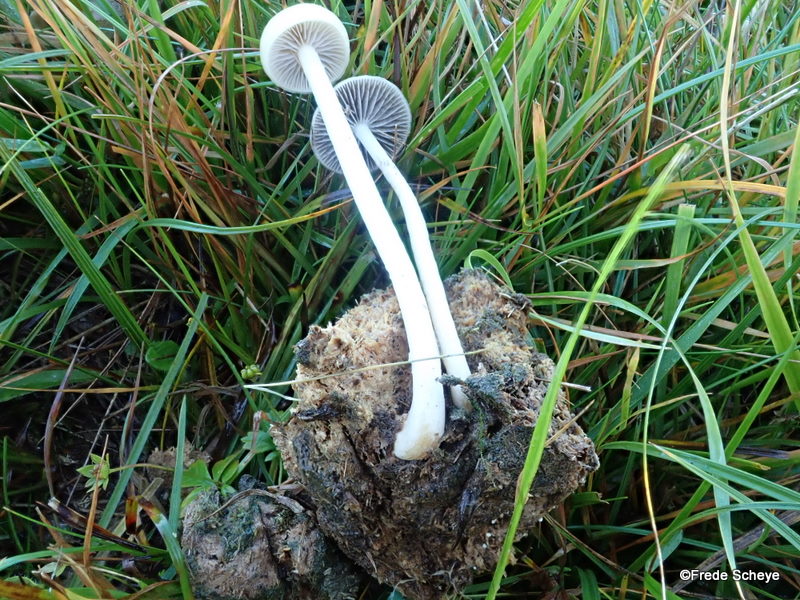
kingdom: Fungi
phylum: Basidiomycota
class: Agaricomycetes
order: Agaricales
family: Strophariaceae
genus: Protostropharia
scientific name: Protostropharia semiglobata
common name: halvkugleformet bredblad
